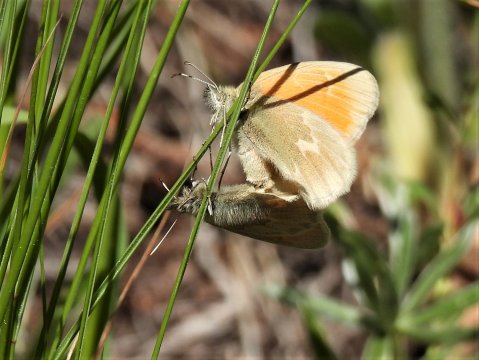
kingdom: Animalia
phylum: Arthropoda
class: Insecta
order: Lepidoptera
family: Nymphalidae
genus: Coenonympha
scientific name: Coenonympha tullia
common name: Large Heath
